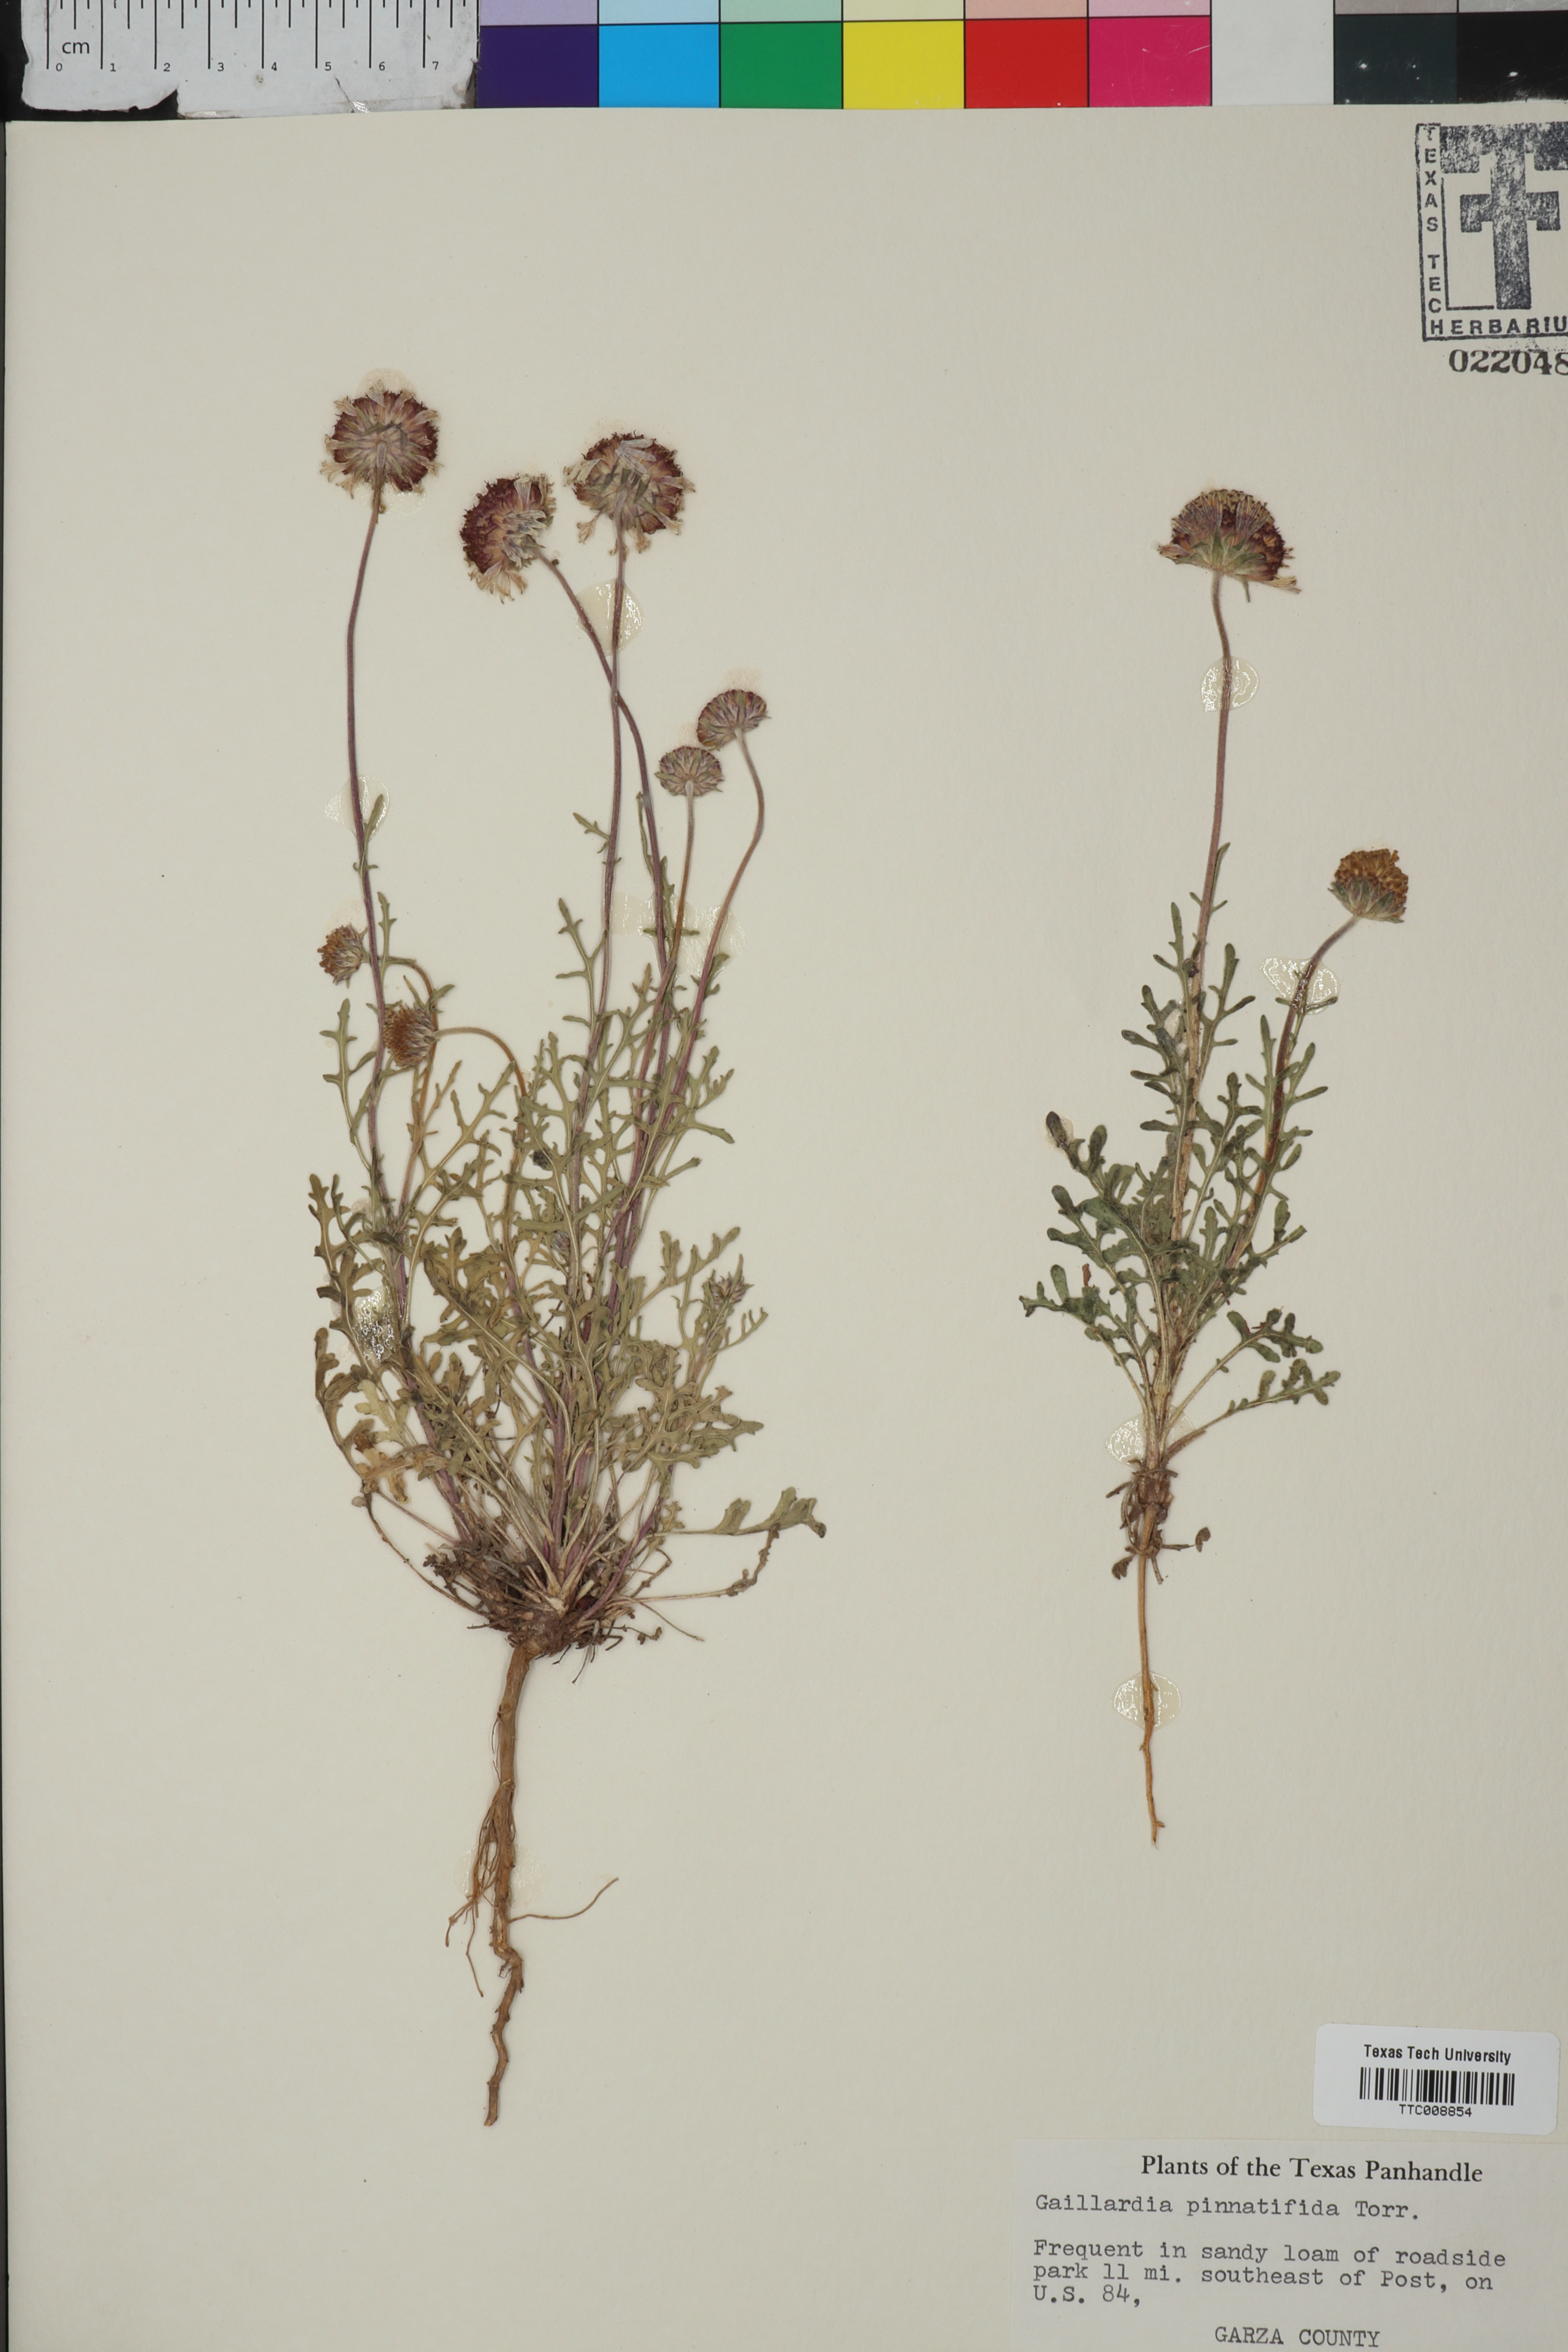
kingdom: Plantae
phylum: Tracheophyta
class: Magnoliopsida
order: Asterales
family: Asteraceae
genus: Gaillardia
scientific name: Gaillardia pinnatifida
